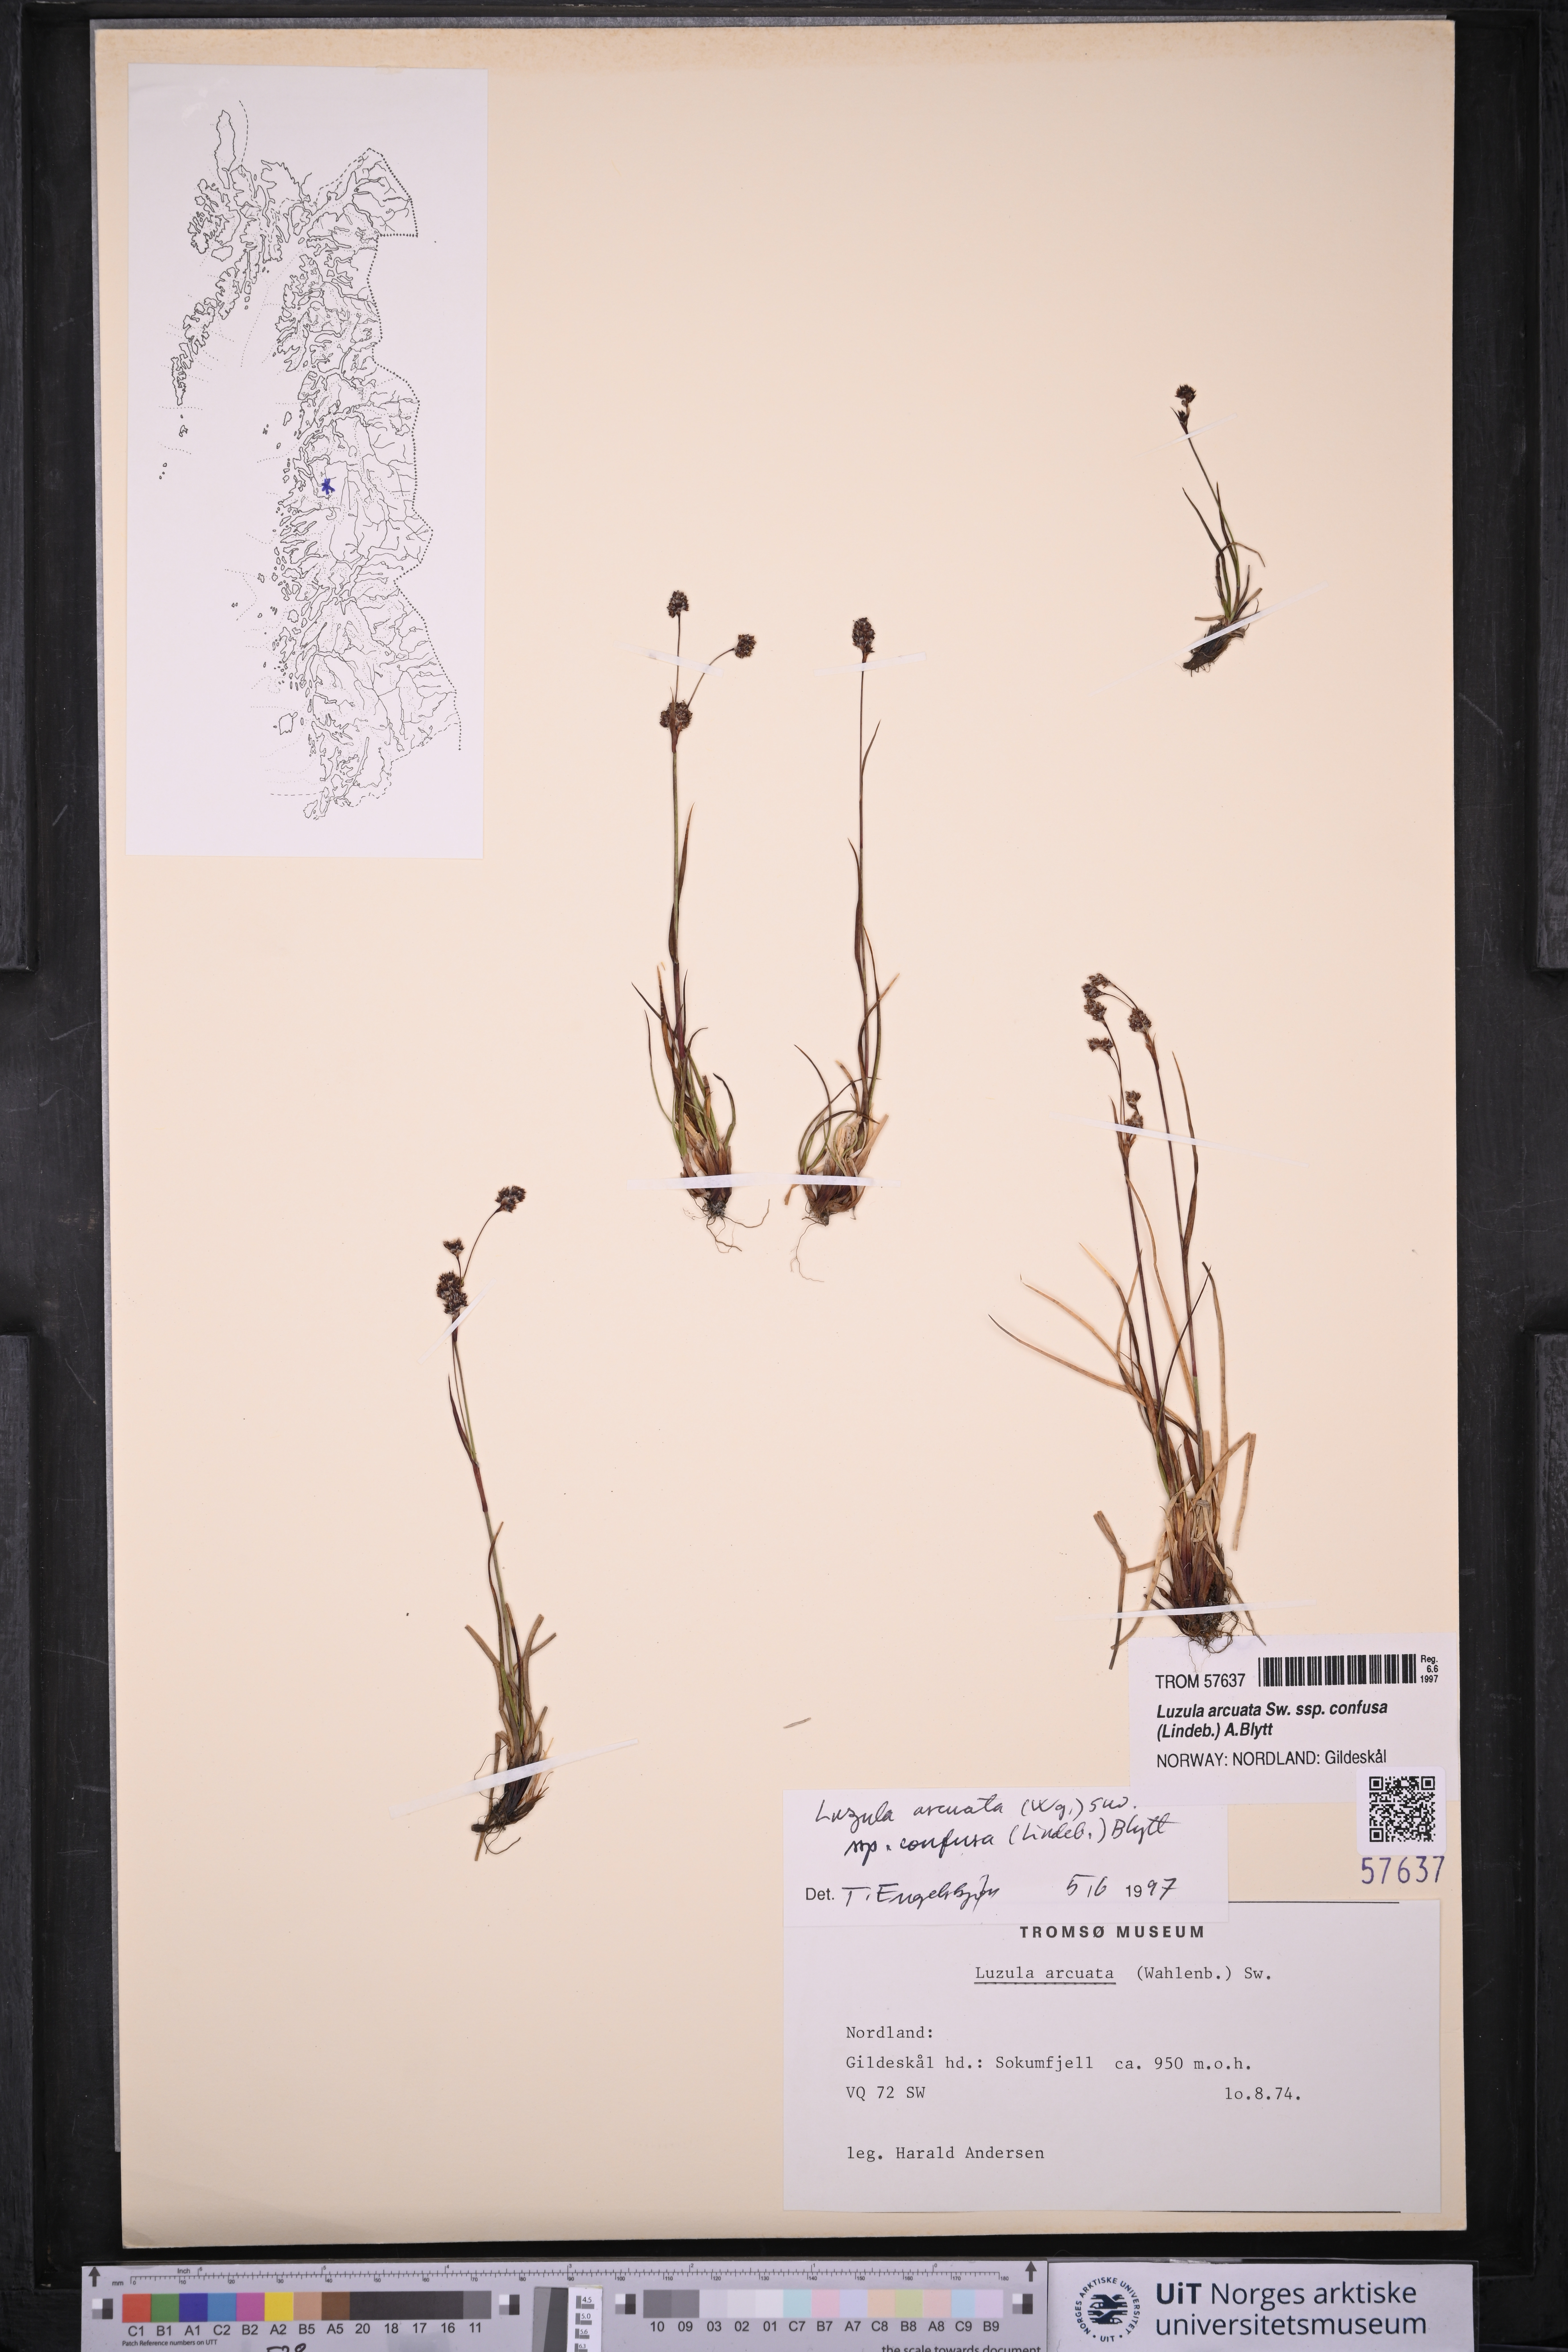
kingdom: Plantae
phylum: Tracheophyta
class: Liliopsida
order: Poales
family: Juncaceae
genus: Luzula
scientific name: Luzula confusa
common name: Northern wood rush
